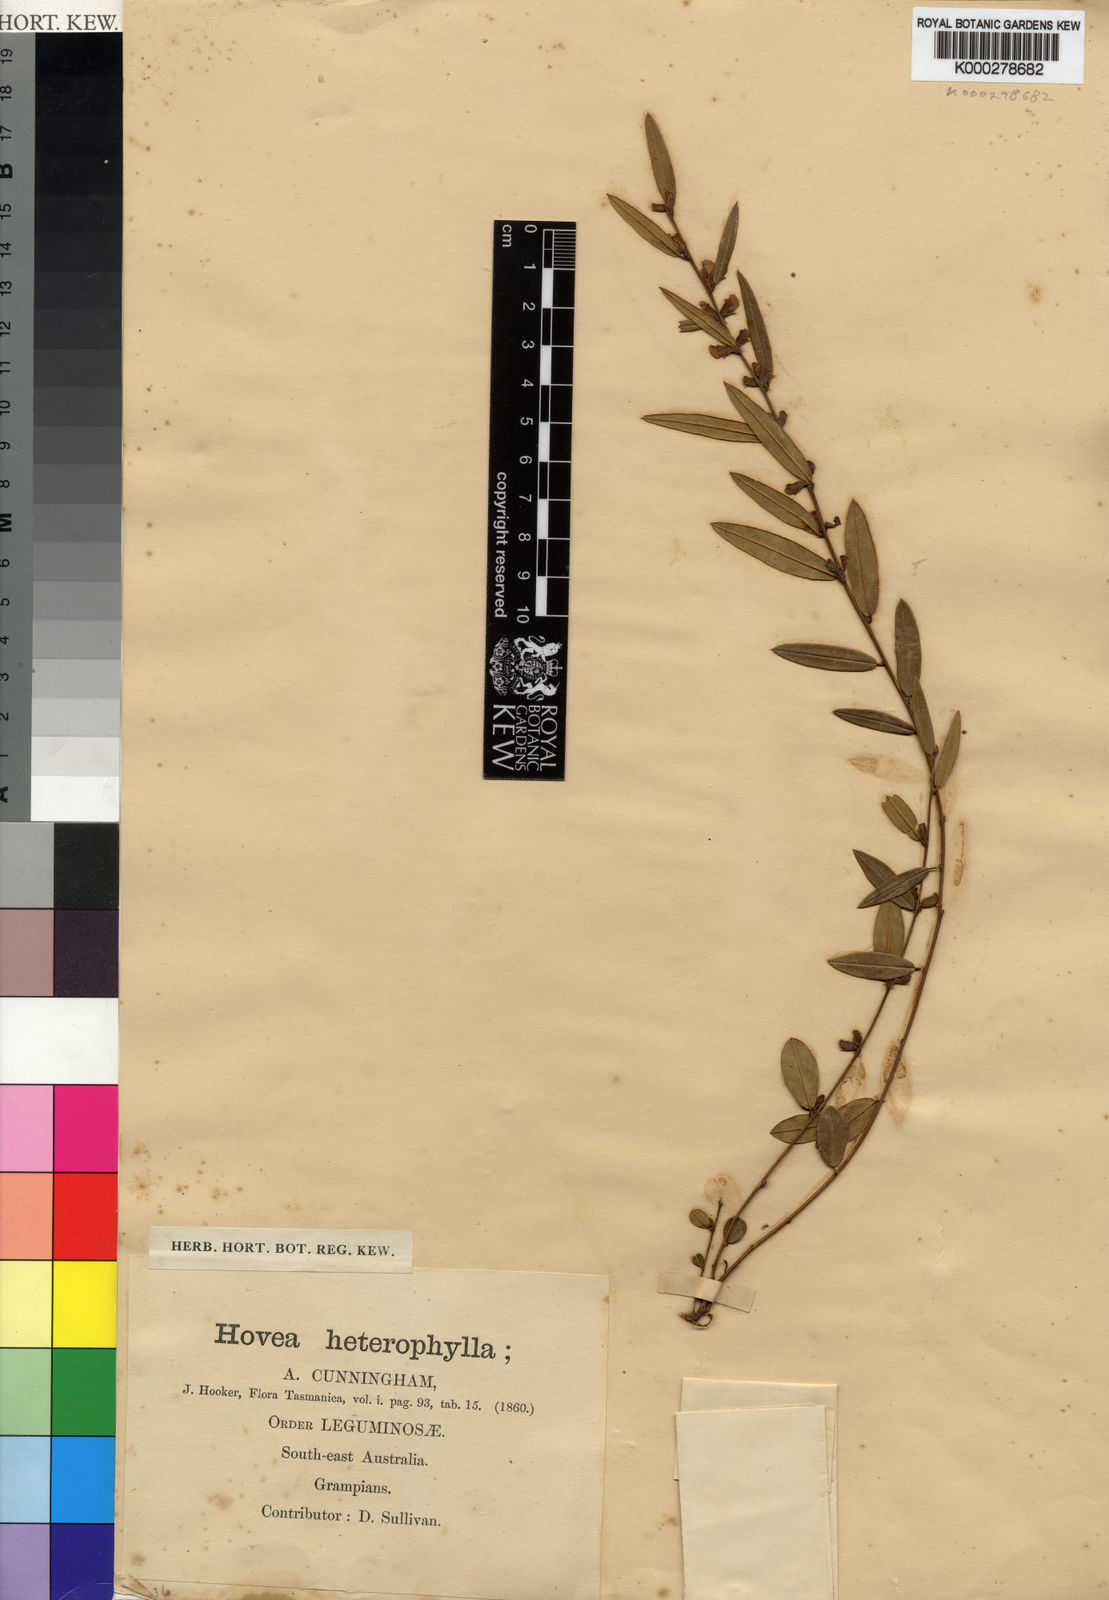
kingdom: Plantae
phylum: Tracheophyta
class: Magnoliopsida
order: Fabales
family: Fabaceae
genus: Hovea
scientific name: Hovea heterophylla
